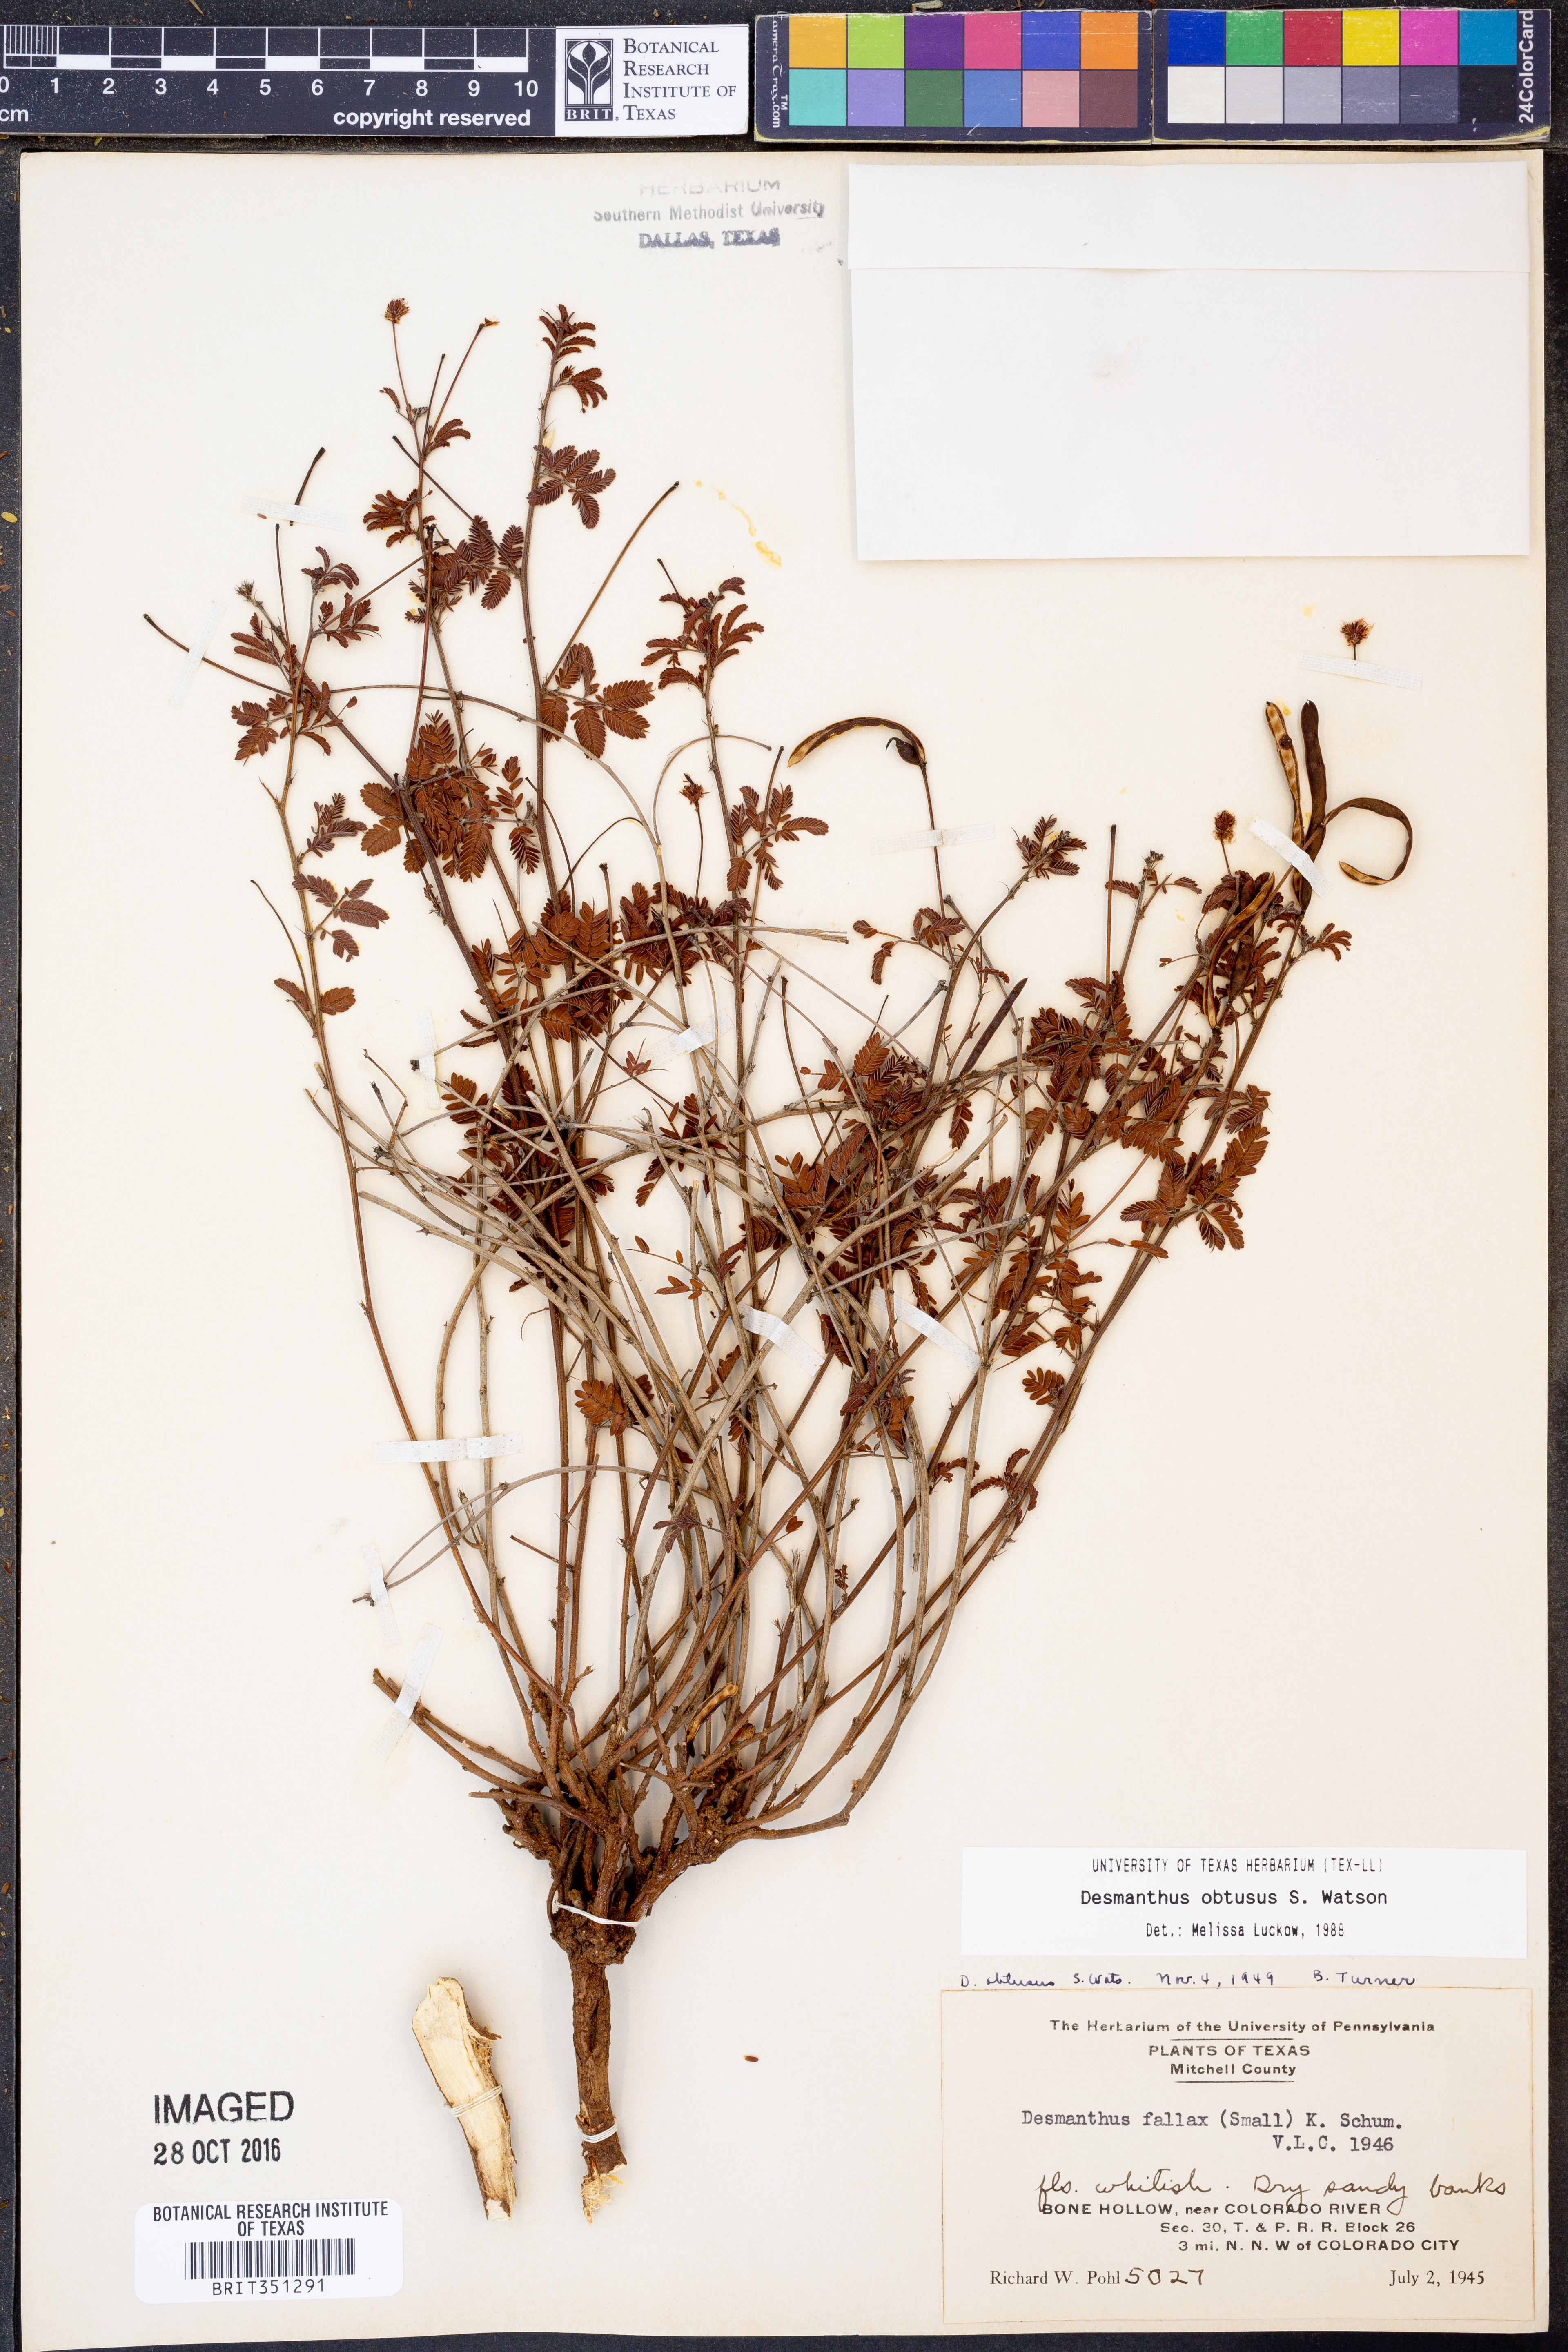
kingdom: Plantae
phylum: Tracheophyta
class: Magnoliopsida
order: Fabales
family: Fabaceae
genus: Desmanthus
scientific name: Desmanthus obtusus
